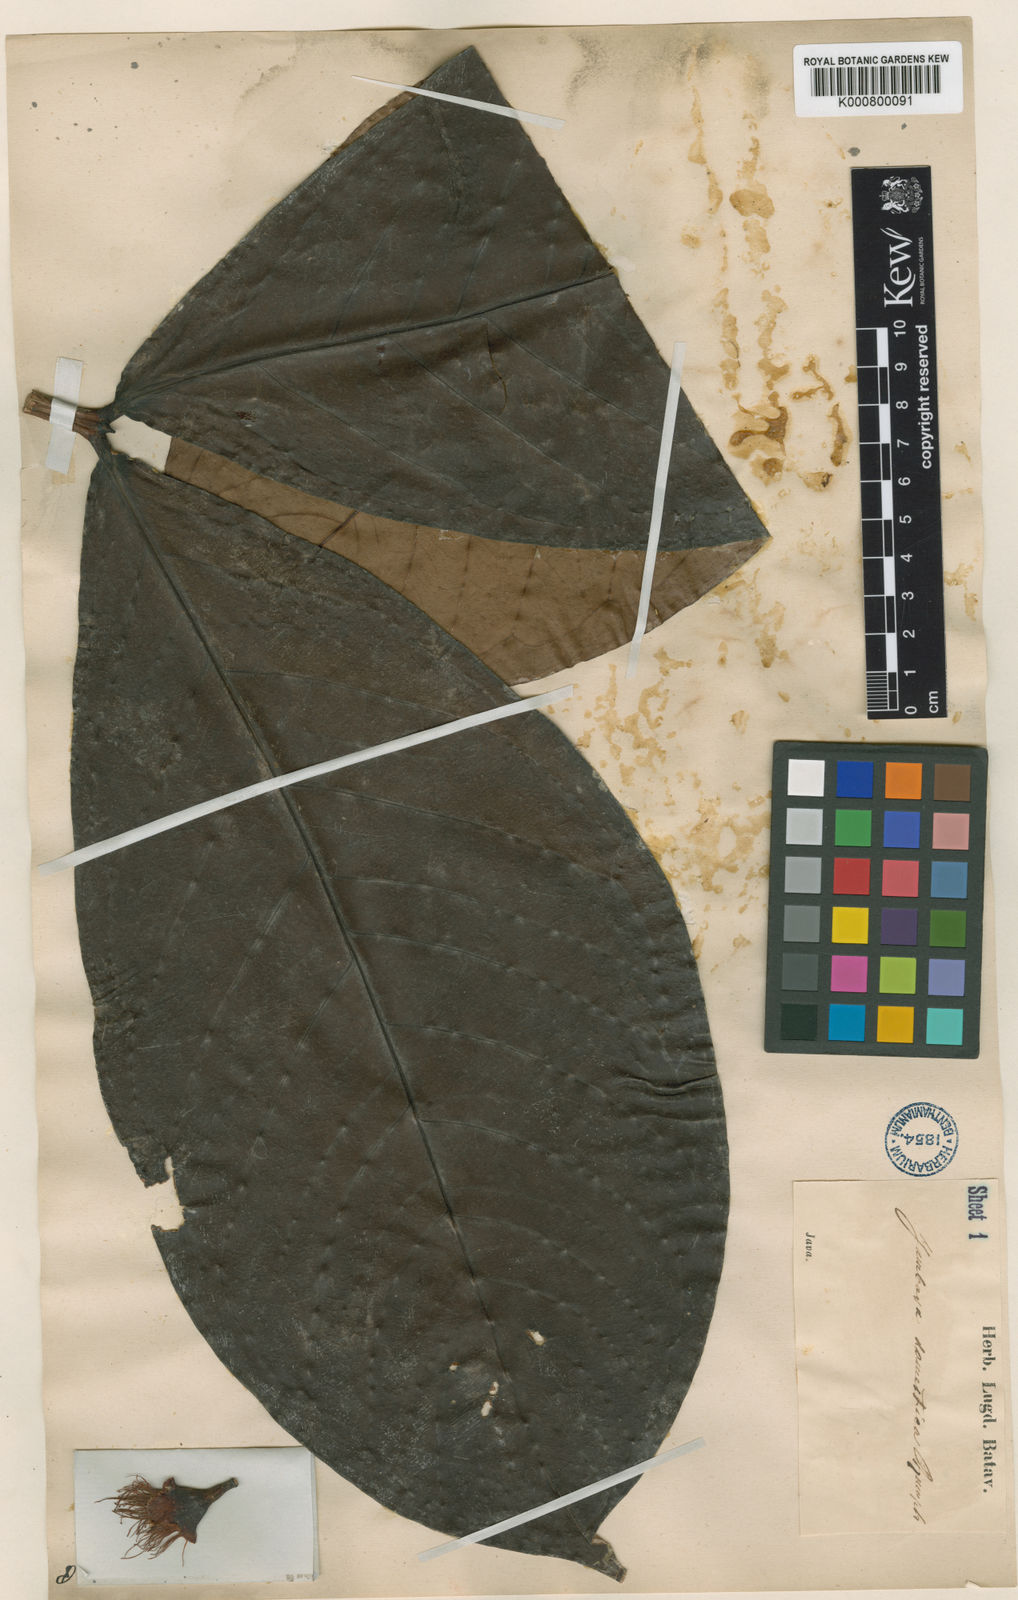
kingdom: Plantae
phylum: Tracheophyta
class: Magnoliopsida
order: Myrtales
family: Myrtaceae
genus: Syzygium
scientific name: Syzygium malaccense
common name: Malaysian apple
